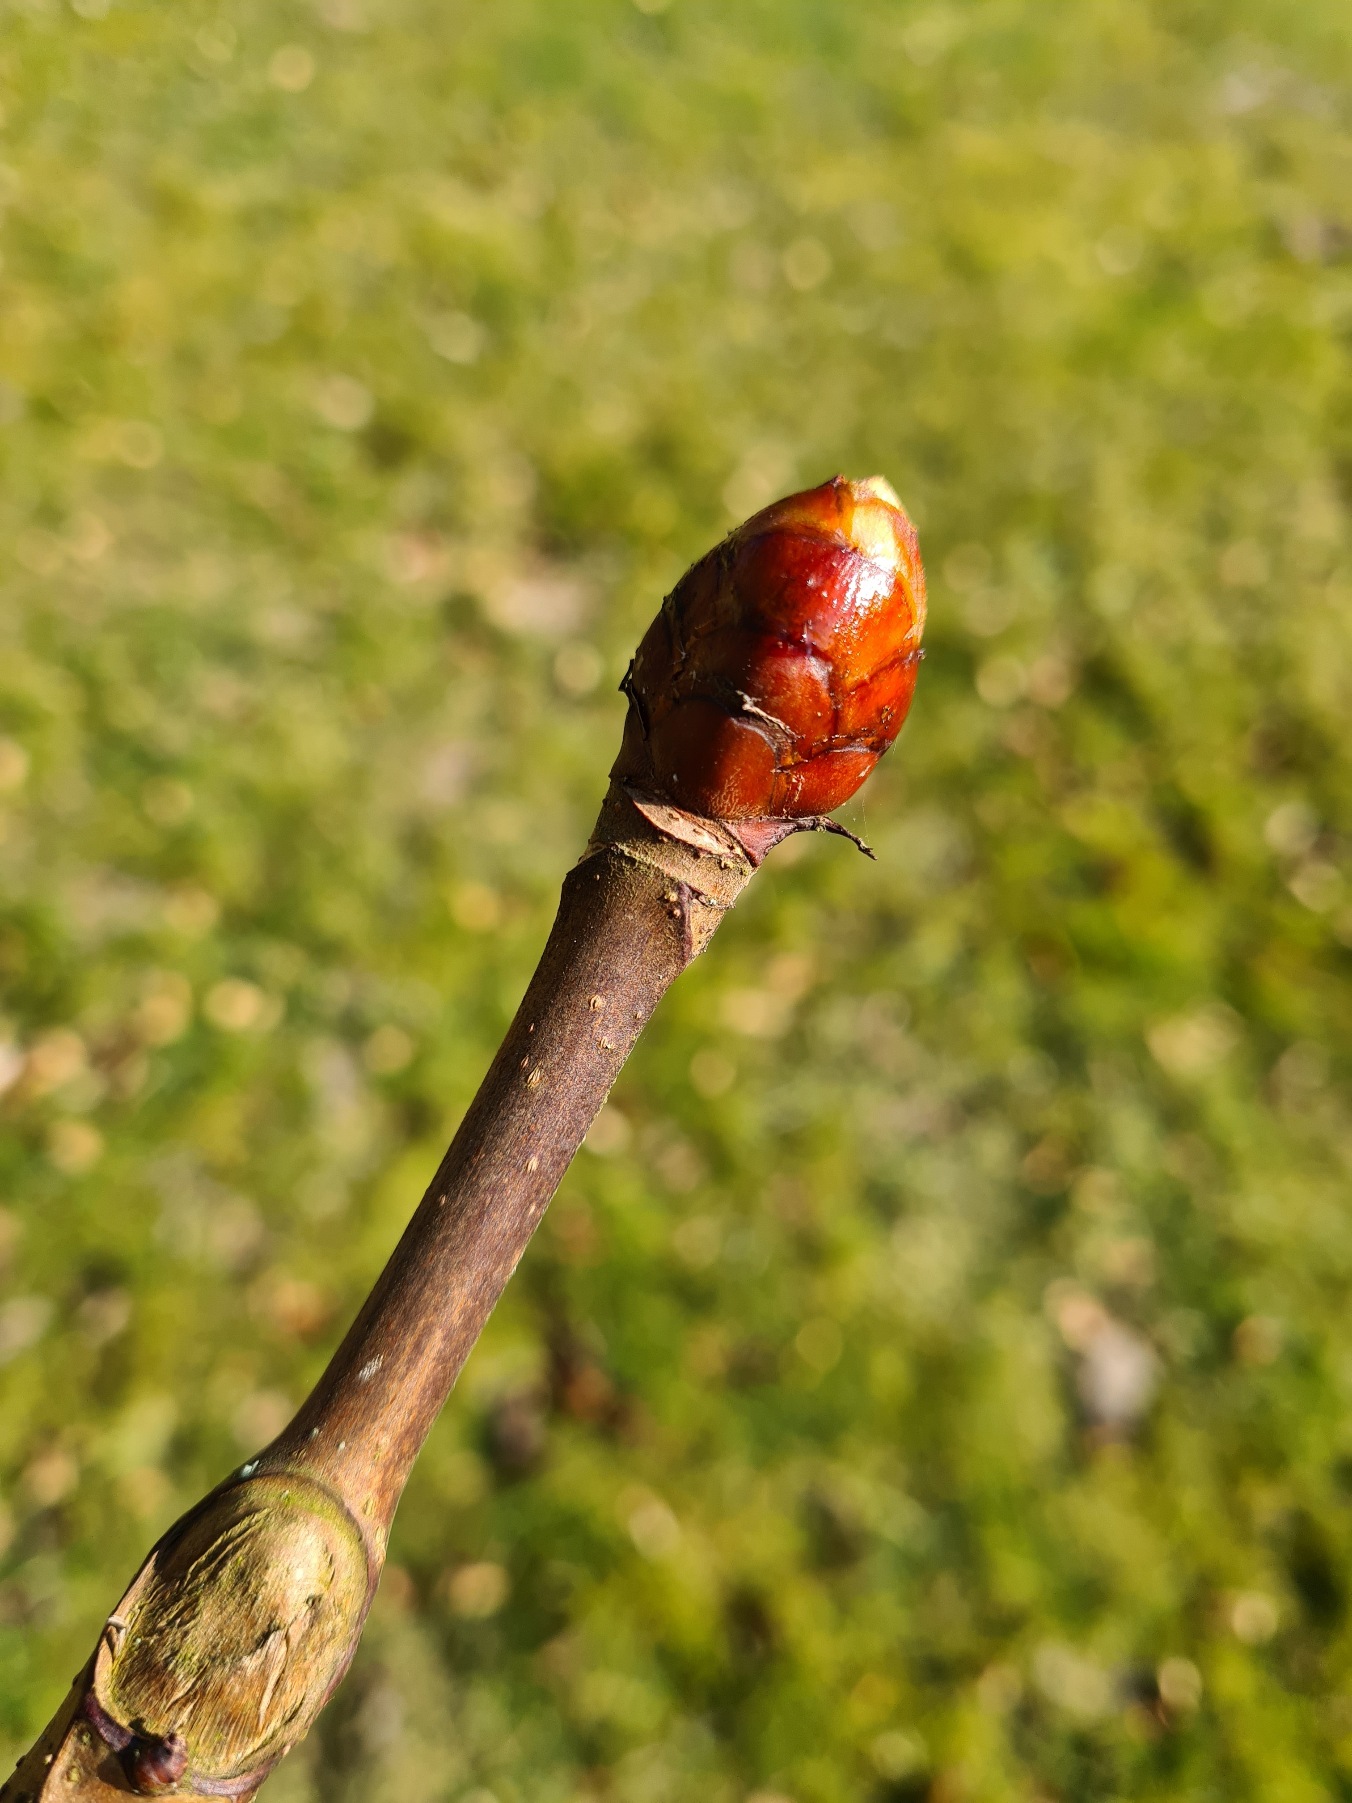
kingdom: Plantae
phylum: Tracheophyta
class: Magnoliopsida
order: Sapindales
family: Sapindaceae
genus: Aesculus
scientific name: Aesculus hippocastanum
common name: Hestekastanie
